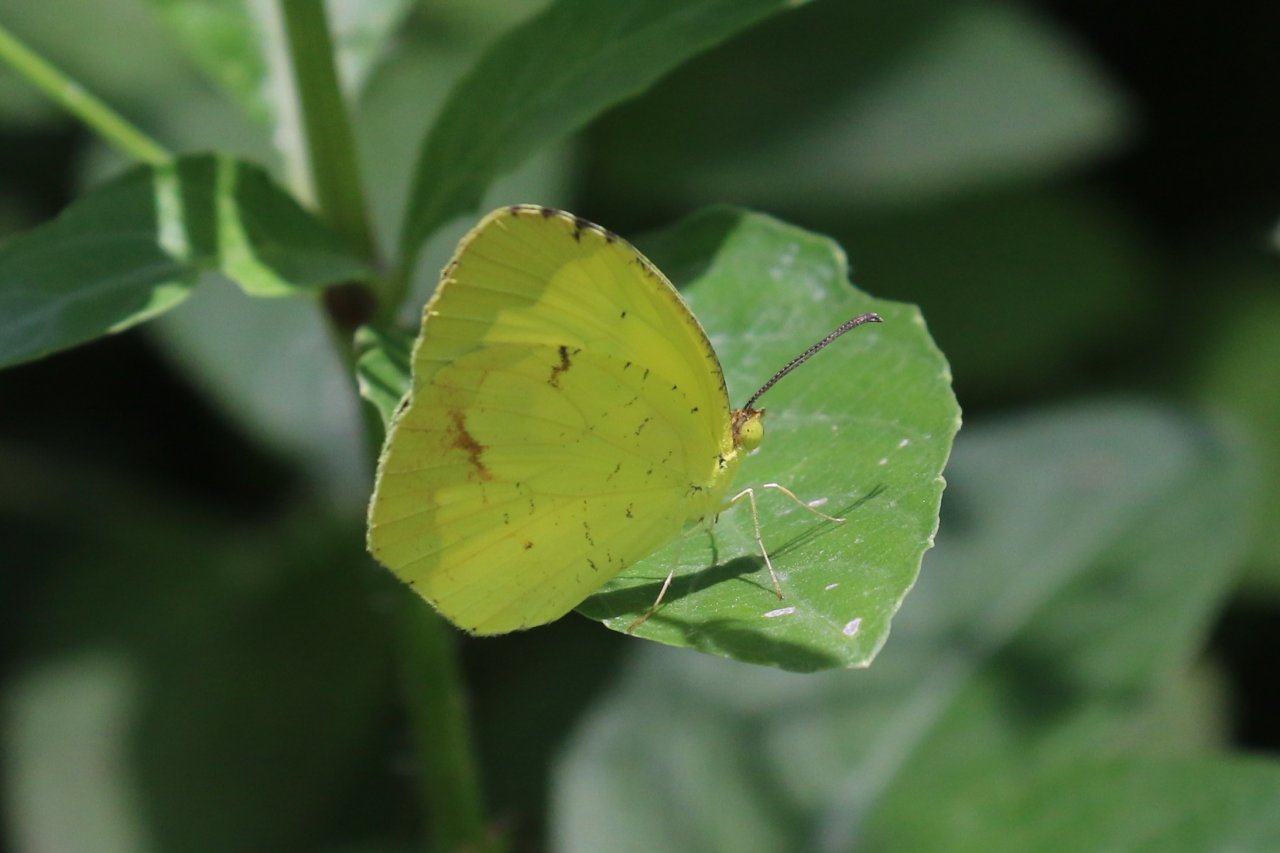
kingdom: Animalia
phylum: Arthropoda
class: Insecta
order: Lepidoptera
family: Pieridae
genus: Eurema
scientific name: Eurema boisduvaliana
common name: Boisduval's Yellow
